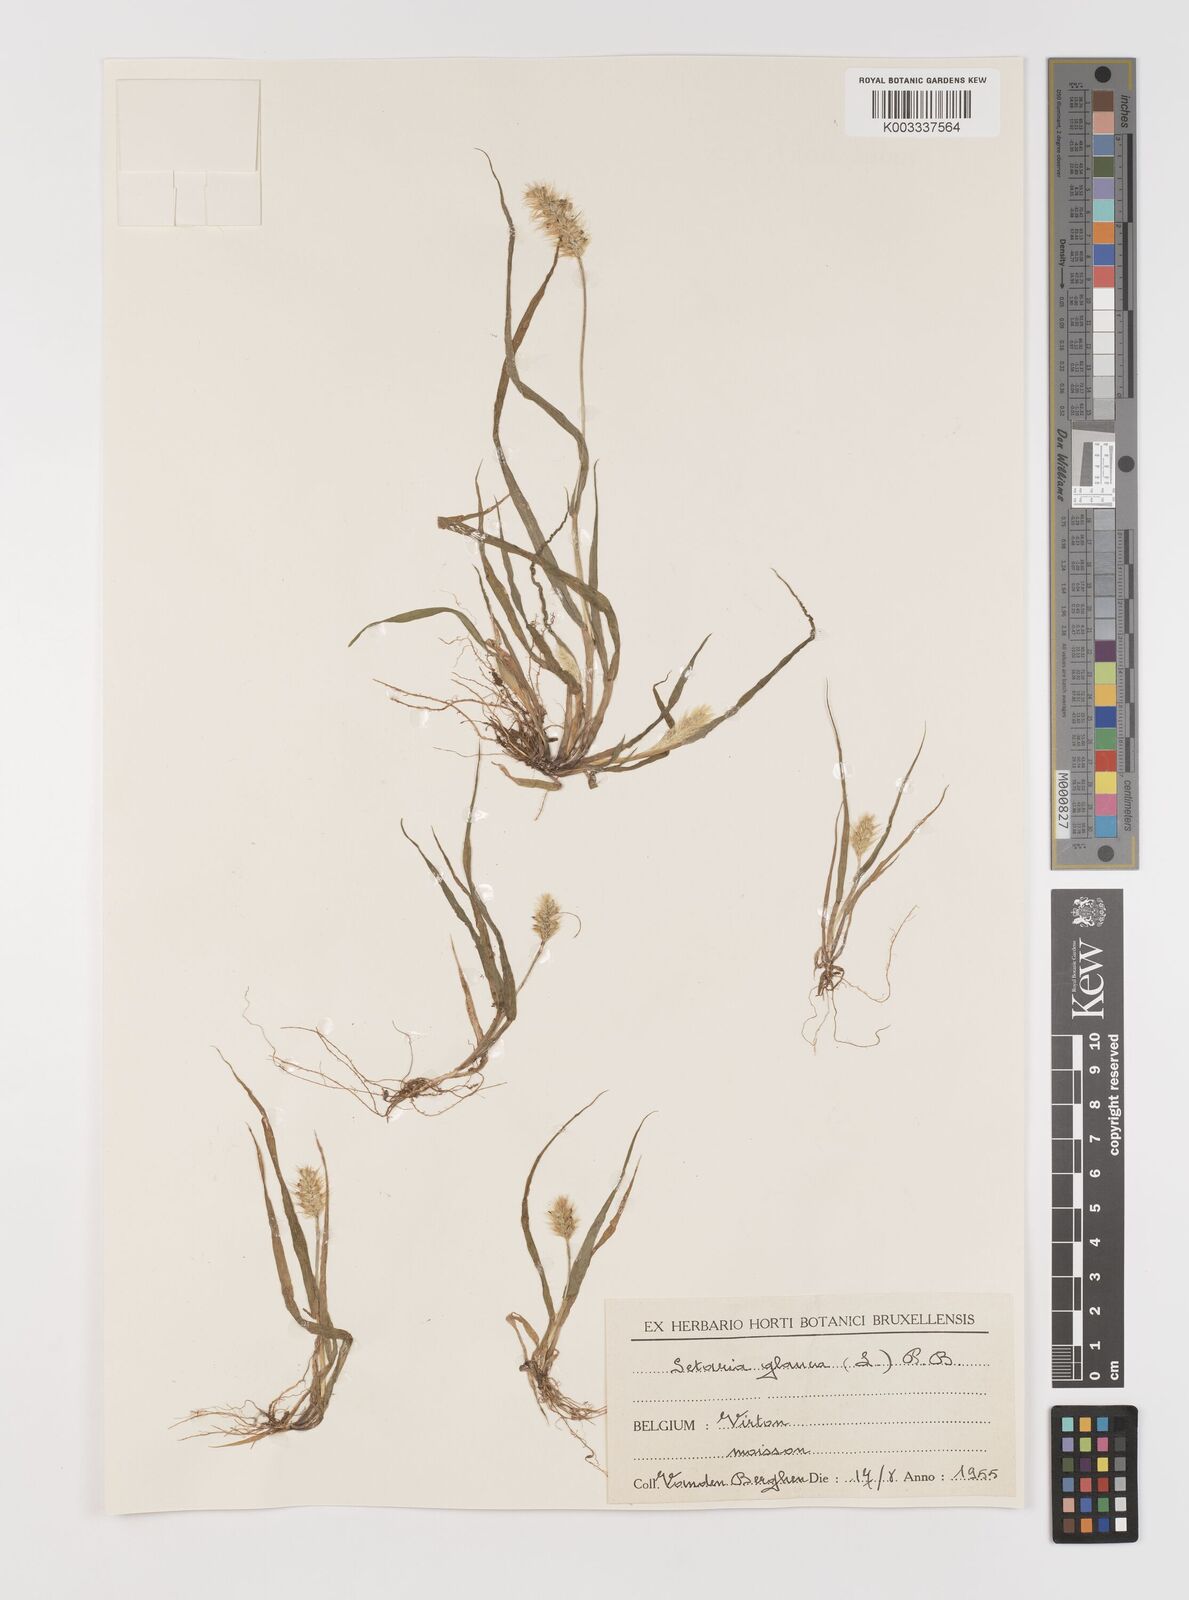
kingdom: Plantae
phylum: Tracheophyta
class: Liliopsida
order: Poales
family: Poaceae
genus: Setaria
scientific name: Setaria pumila
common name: Yellow bristle-grass
